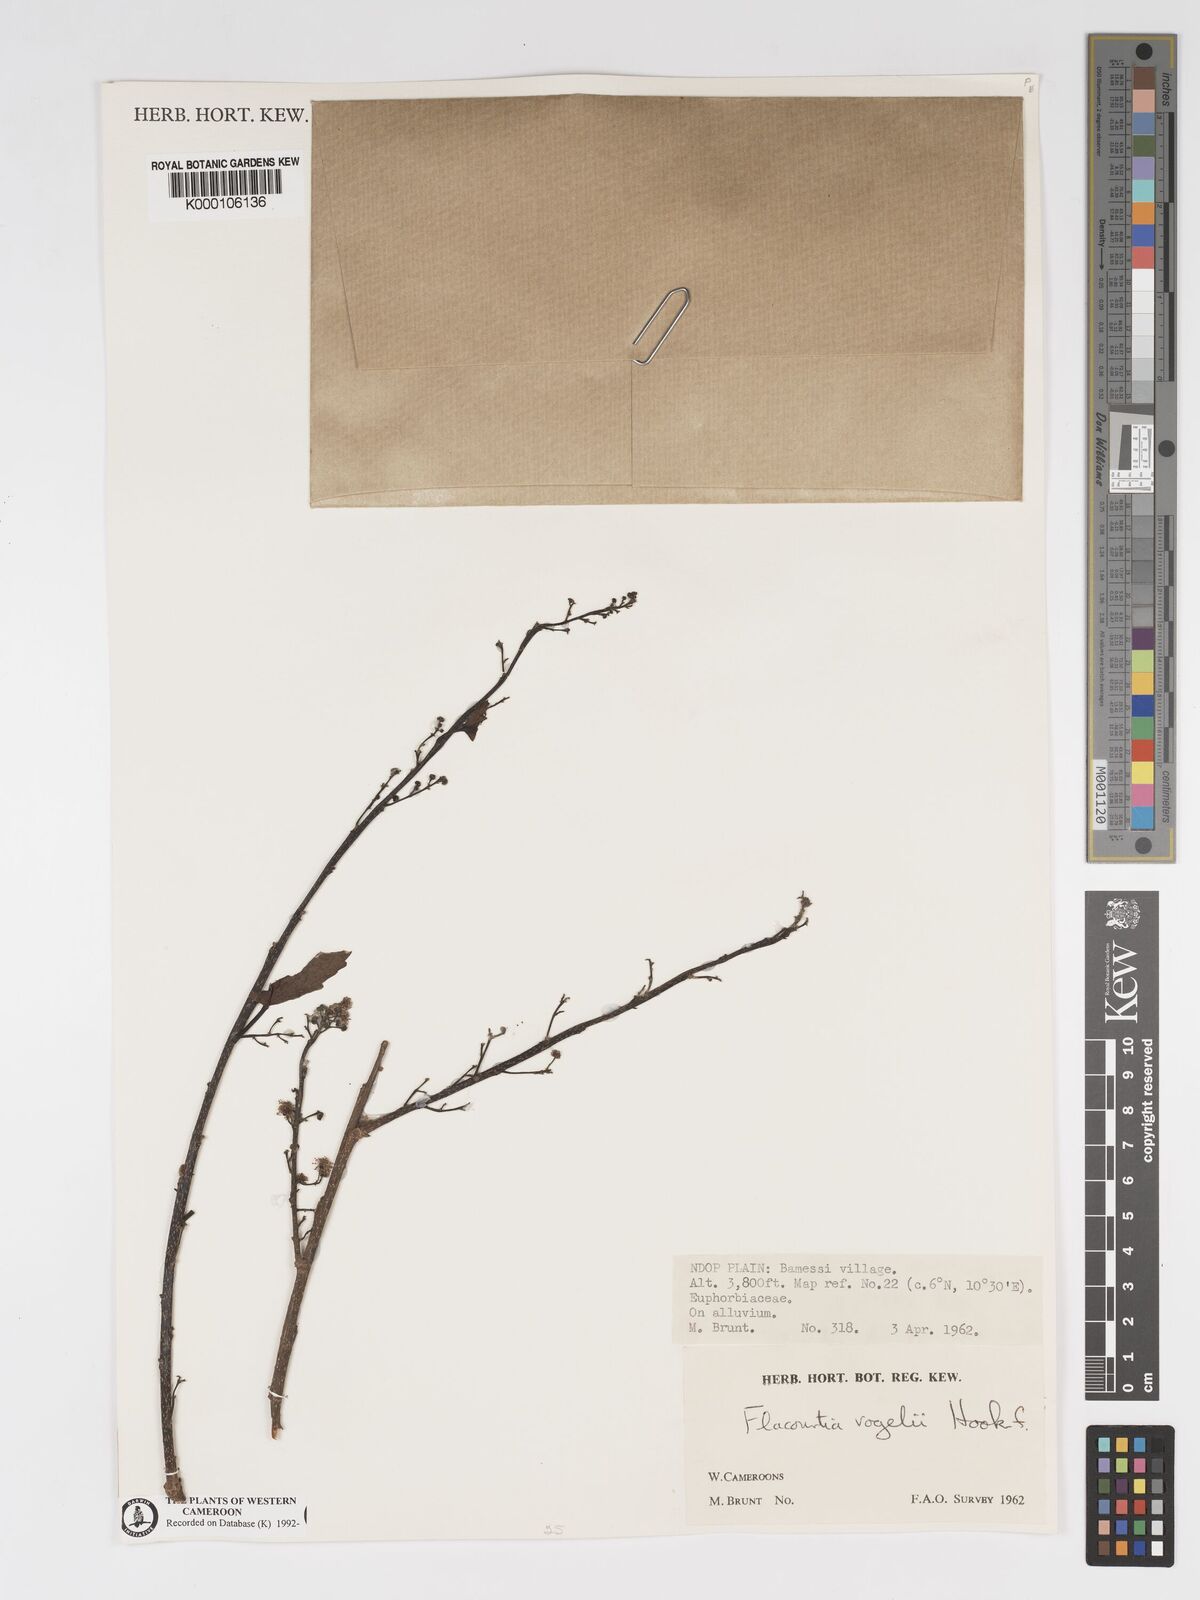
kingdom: Plantae
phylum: Tracheophyta
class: Magnoliopsida
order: Malpighiales
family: Salicaceae
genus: Flacourtia
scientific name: Flacourtia vogelii
